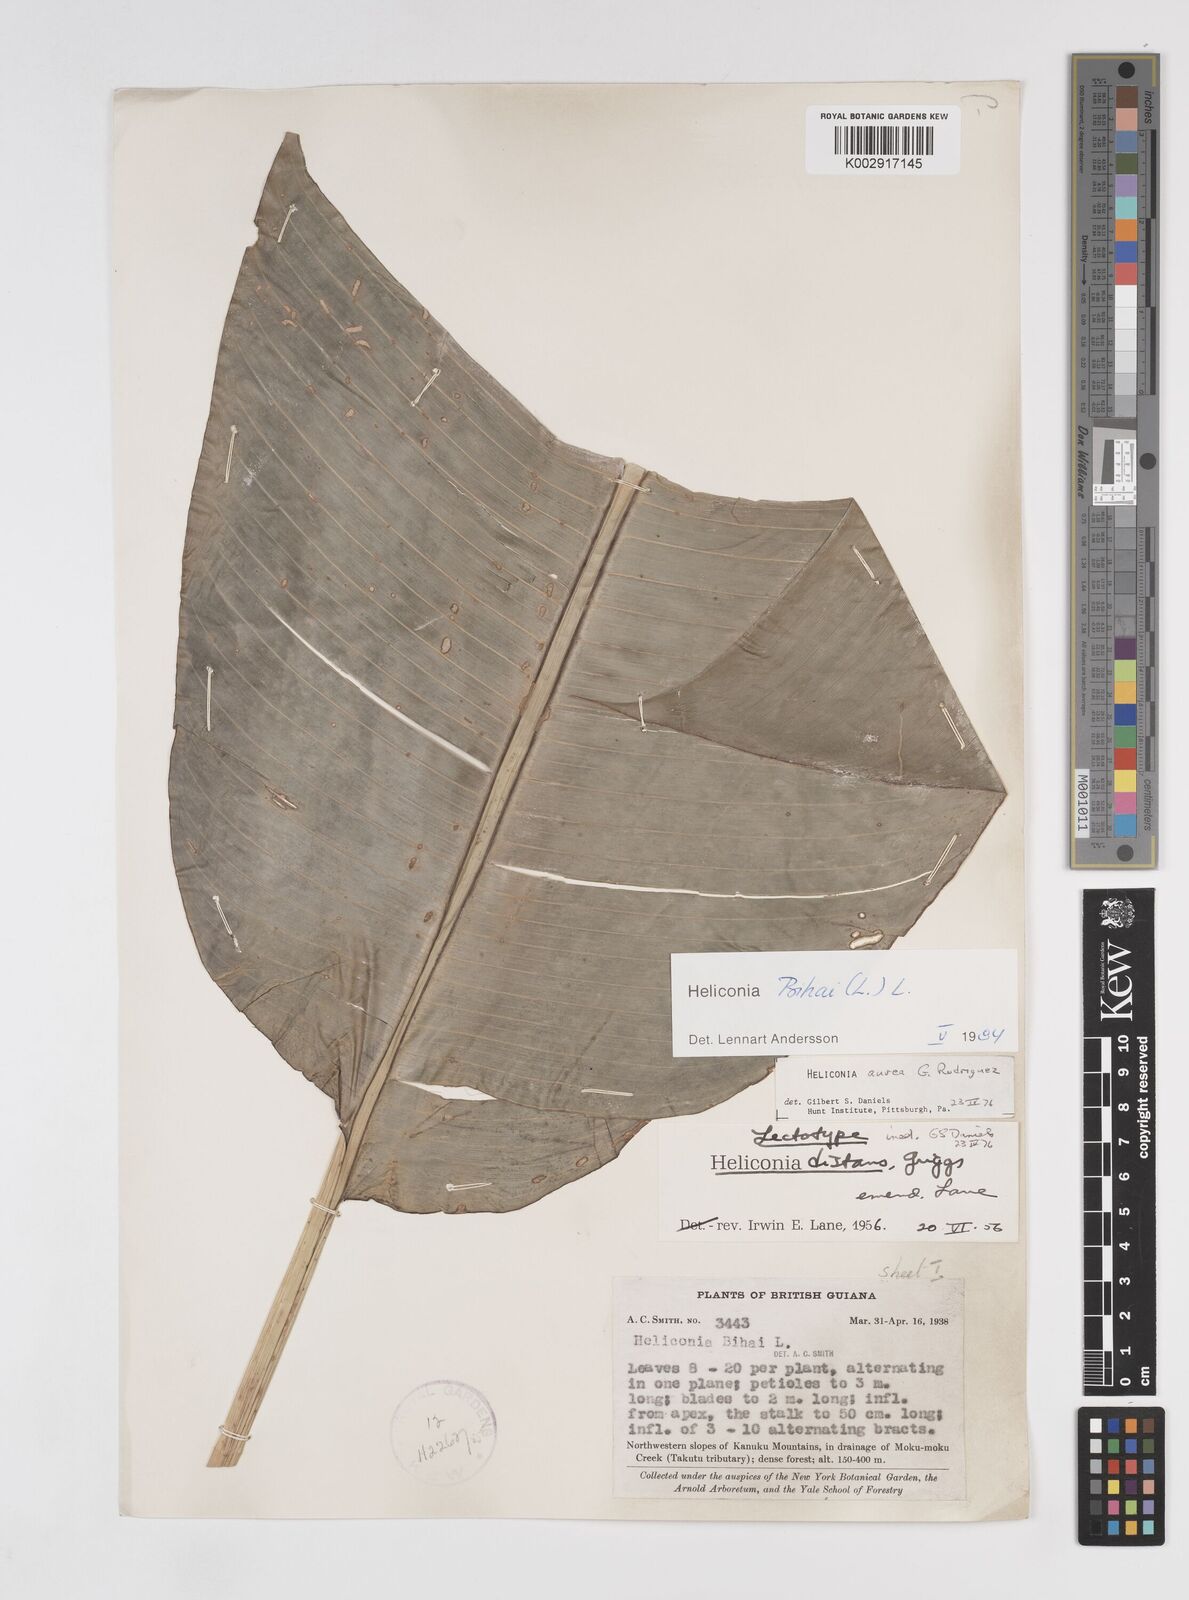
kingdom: Plantae
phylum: Tracheophyta
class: Liliopsida
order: Zingiberales
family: Heliconiaceae
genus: Heliconia
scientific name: Heliconia bihai
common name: Macaw flower
